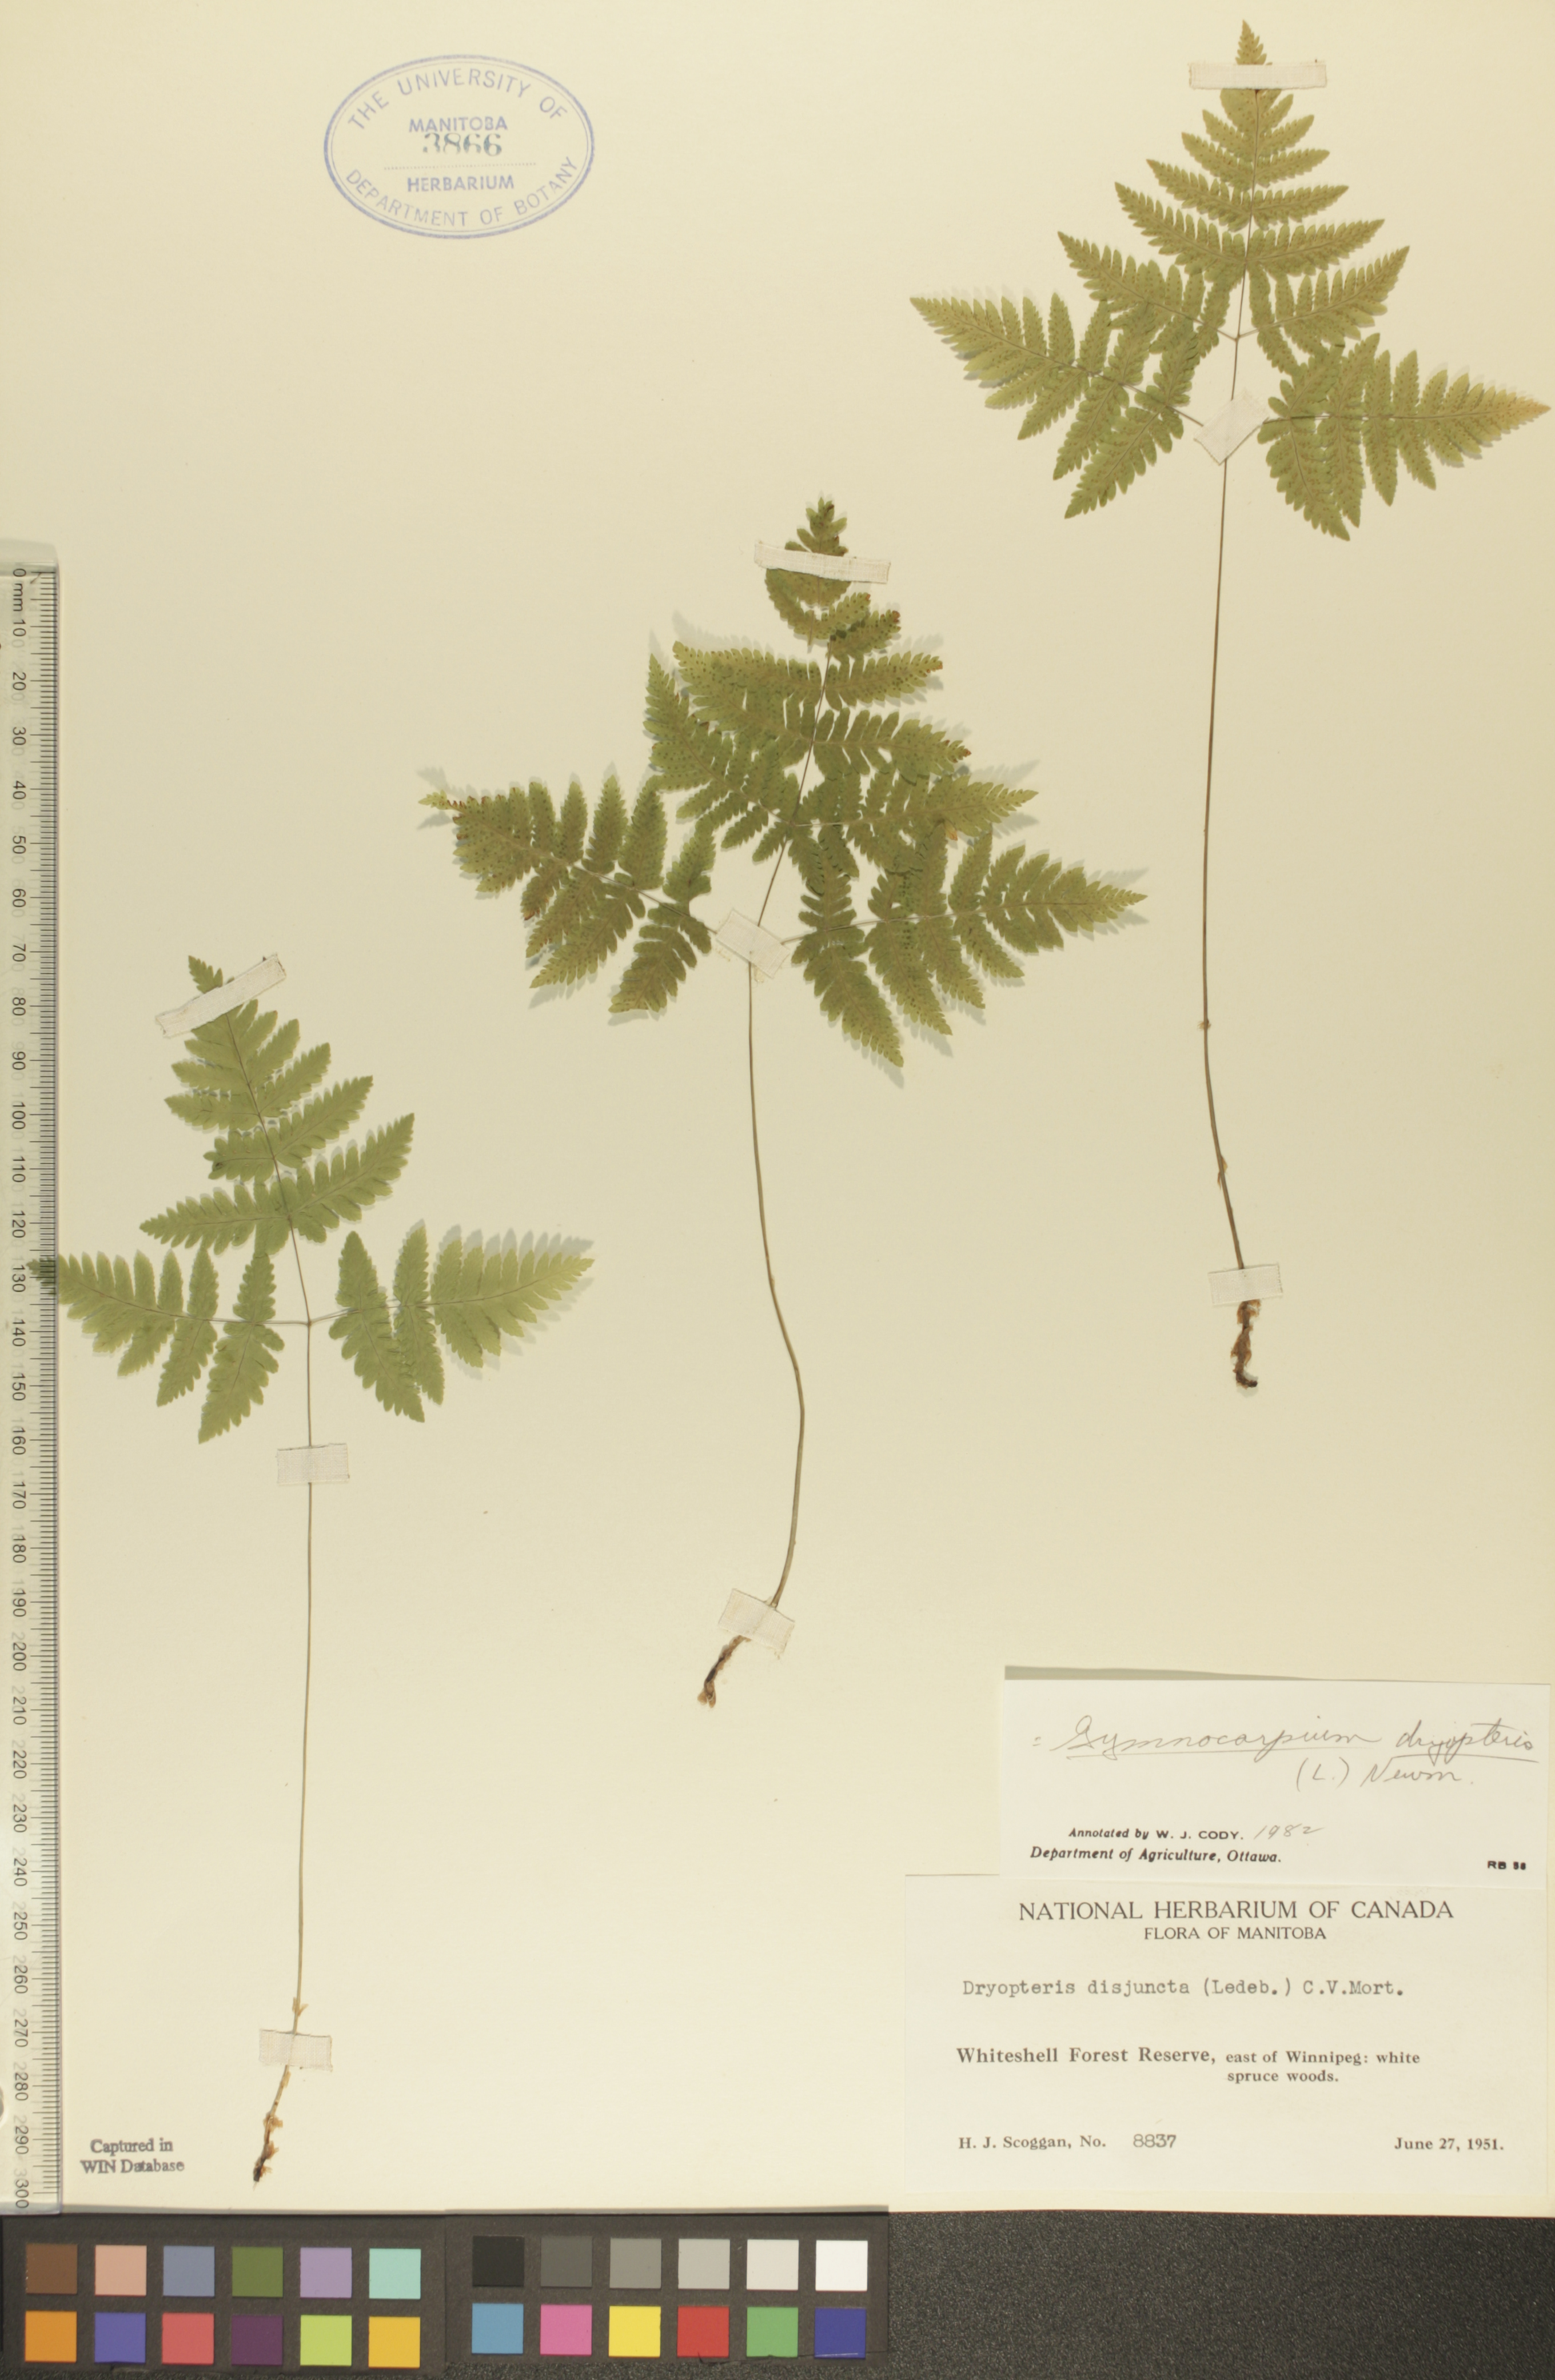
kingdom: Plantae
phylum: Tracheophyta
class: Polypodiopsida
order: Polypodiales
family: Cystopteridaceae
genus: Gymnocarpium
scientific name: Gymnocarpium dryopteris
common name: Oak fern
